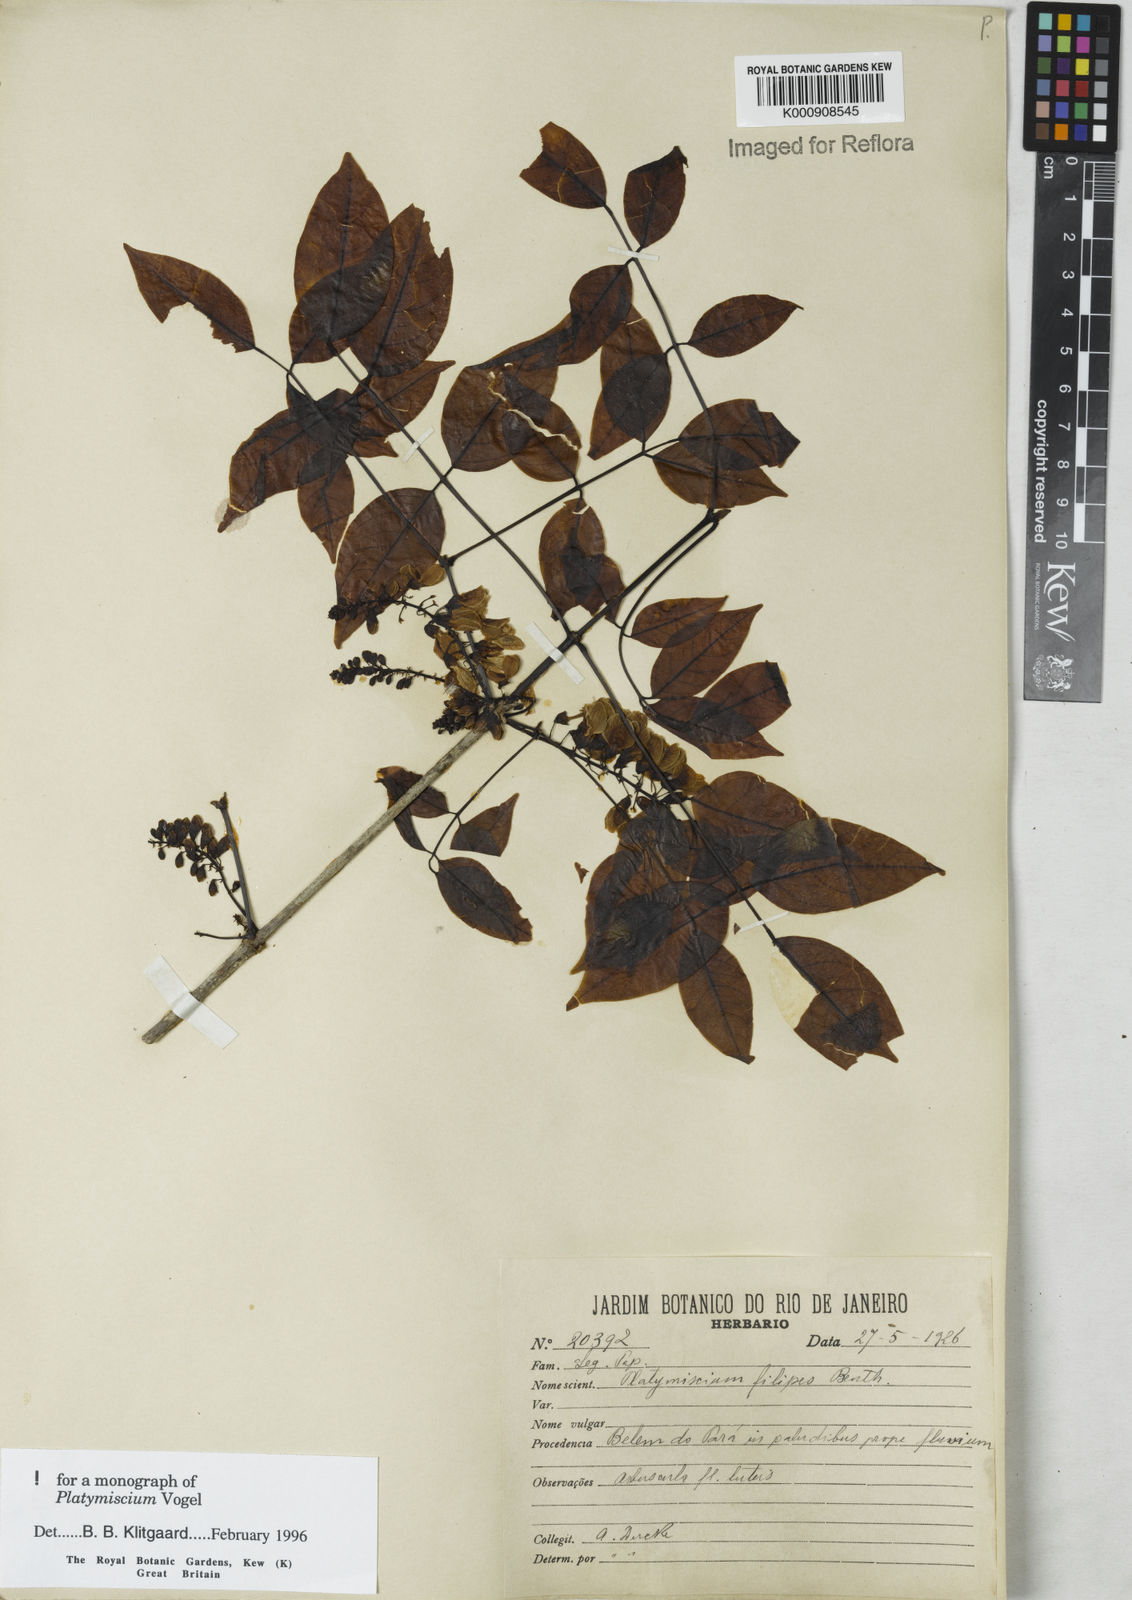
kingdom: Plantae
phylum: Tracheophyta
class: Magnoliopsida
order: Fabales
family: Fabaceae
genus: Platymiscium
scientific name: Platymiscium filipes
